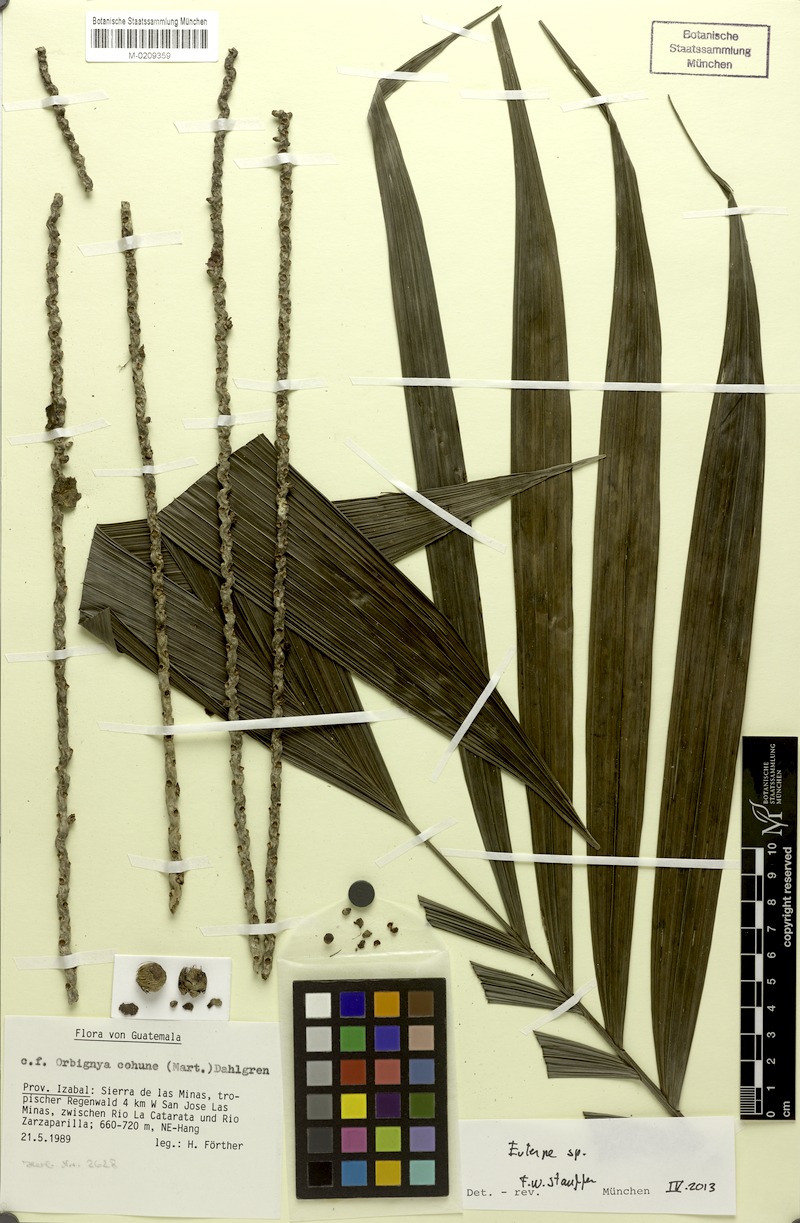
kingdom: Plantae
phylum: Tracheophyta
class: Liliopsida
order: Arecales
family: Arecaceae
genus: Euterpe
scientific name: Euterpe
